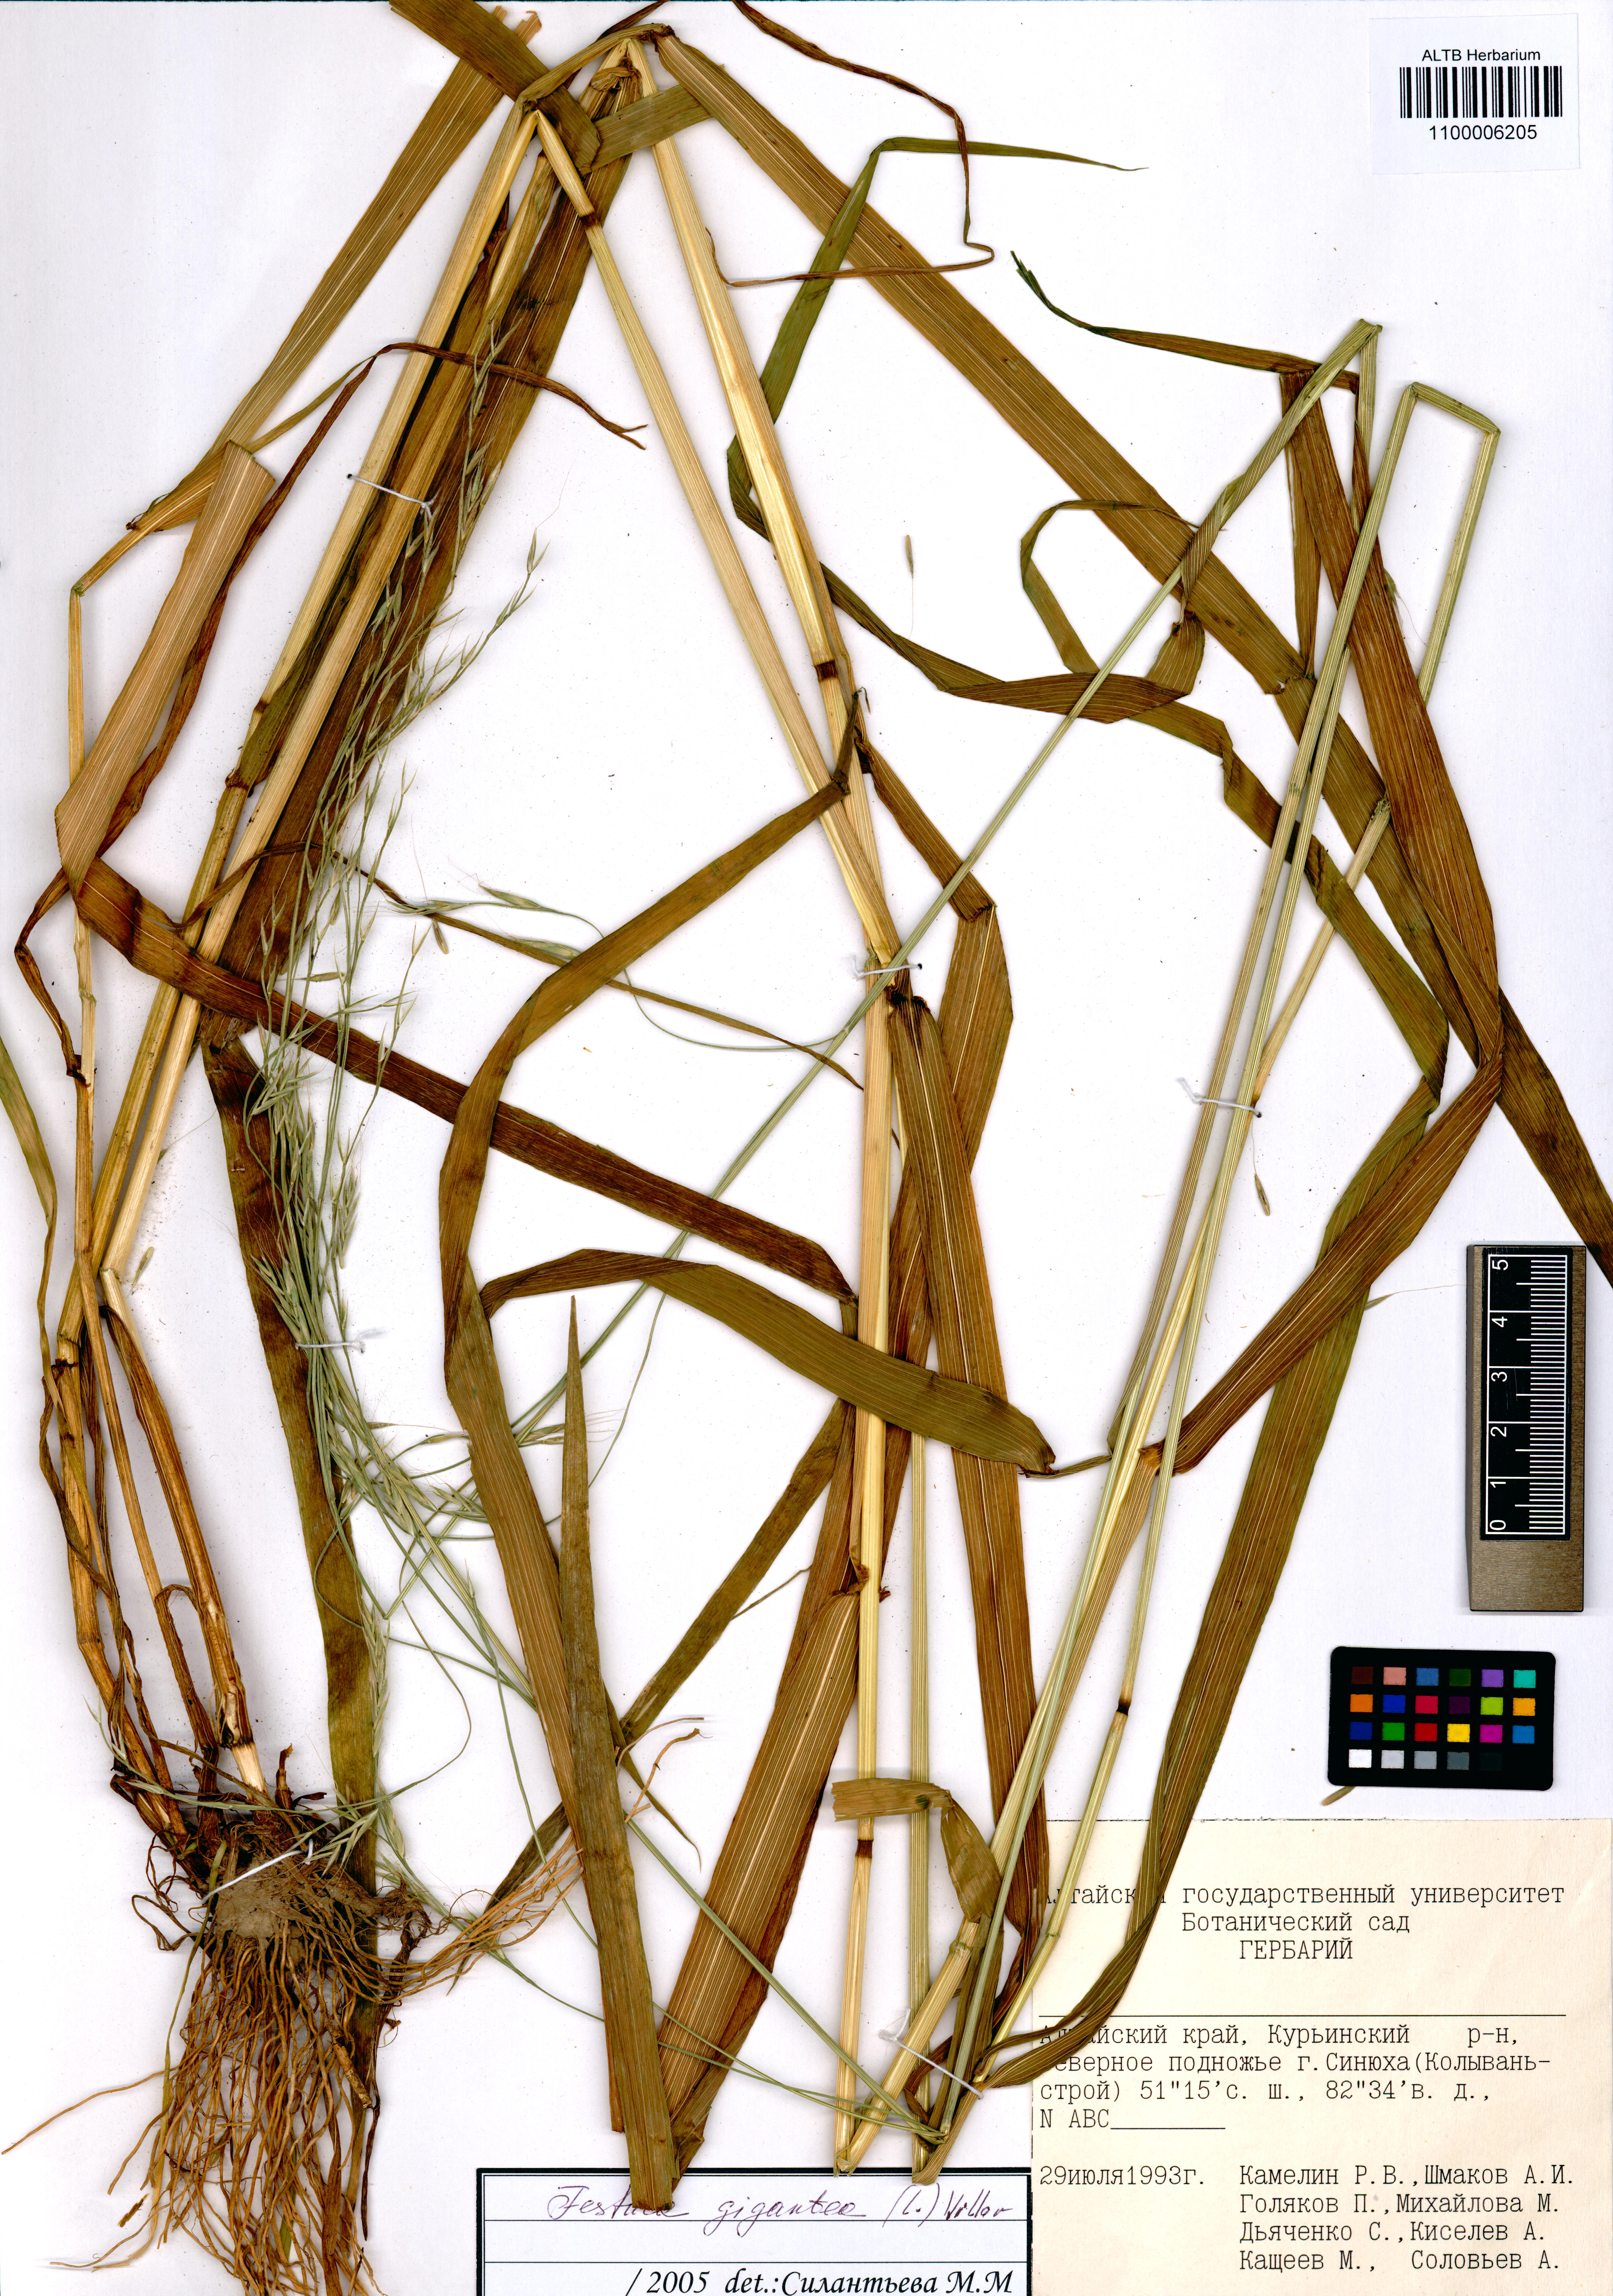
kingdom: Plantae
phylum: Tracheophyta
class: Liliopsida
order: Poales
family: Poaceae
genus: Lolium
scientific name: Lolium giganteum
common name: Giant fescue
